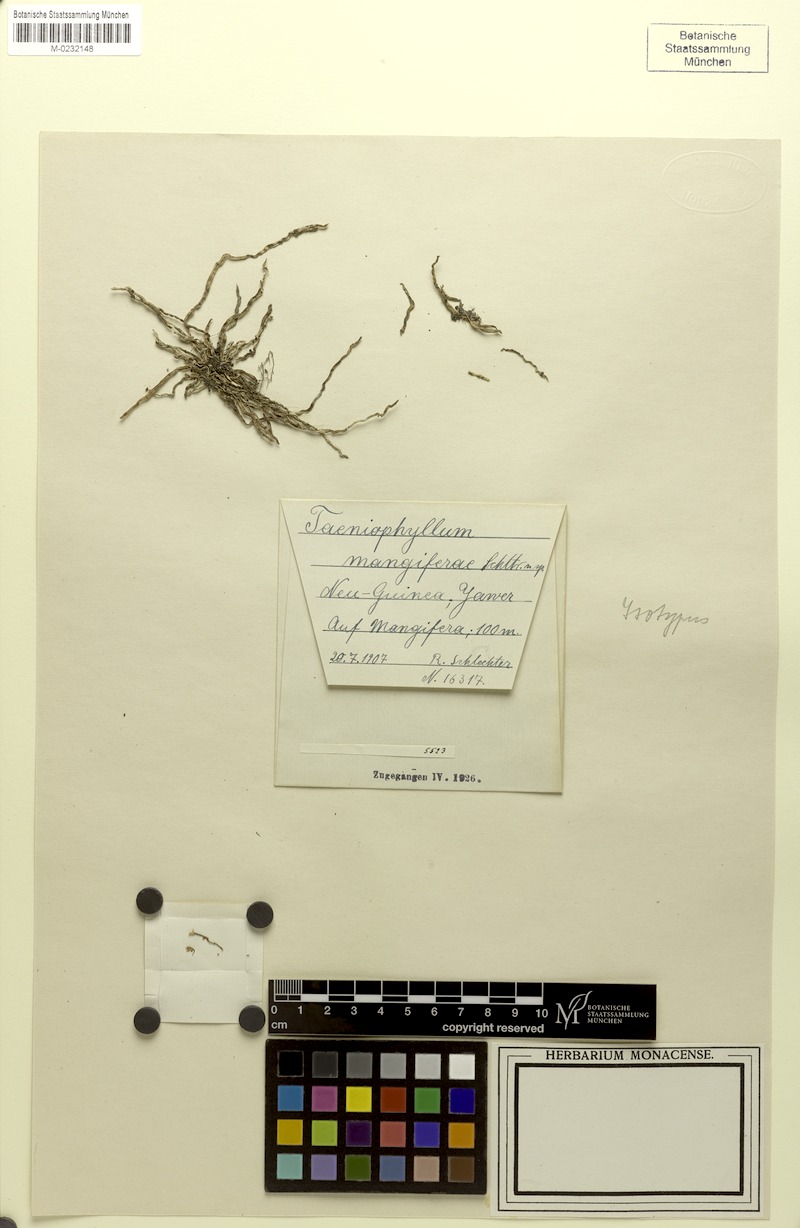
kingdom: Plantae
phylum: Tracheophyta
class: Liliopsida
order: Asparagales
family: Orchidaceae
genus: Taeniophyllum
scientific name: Taeniophyllum mangiferae
